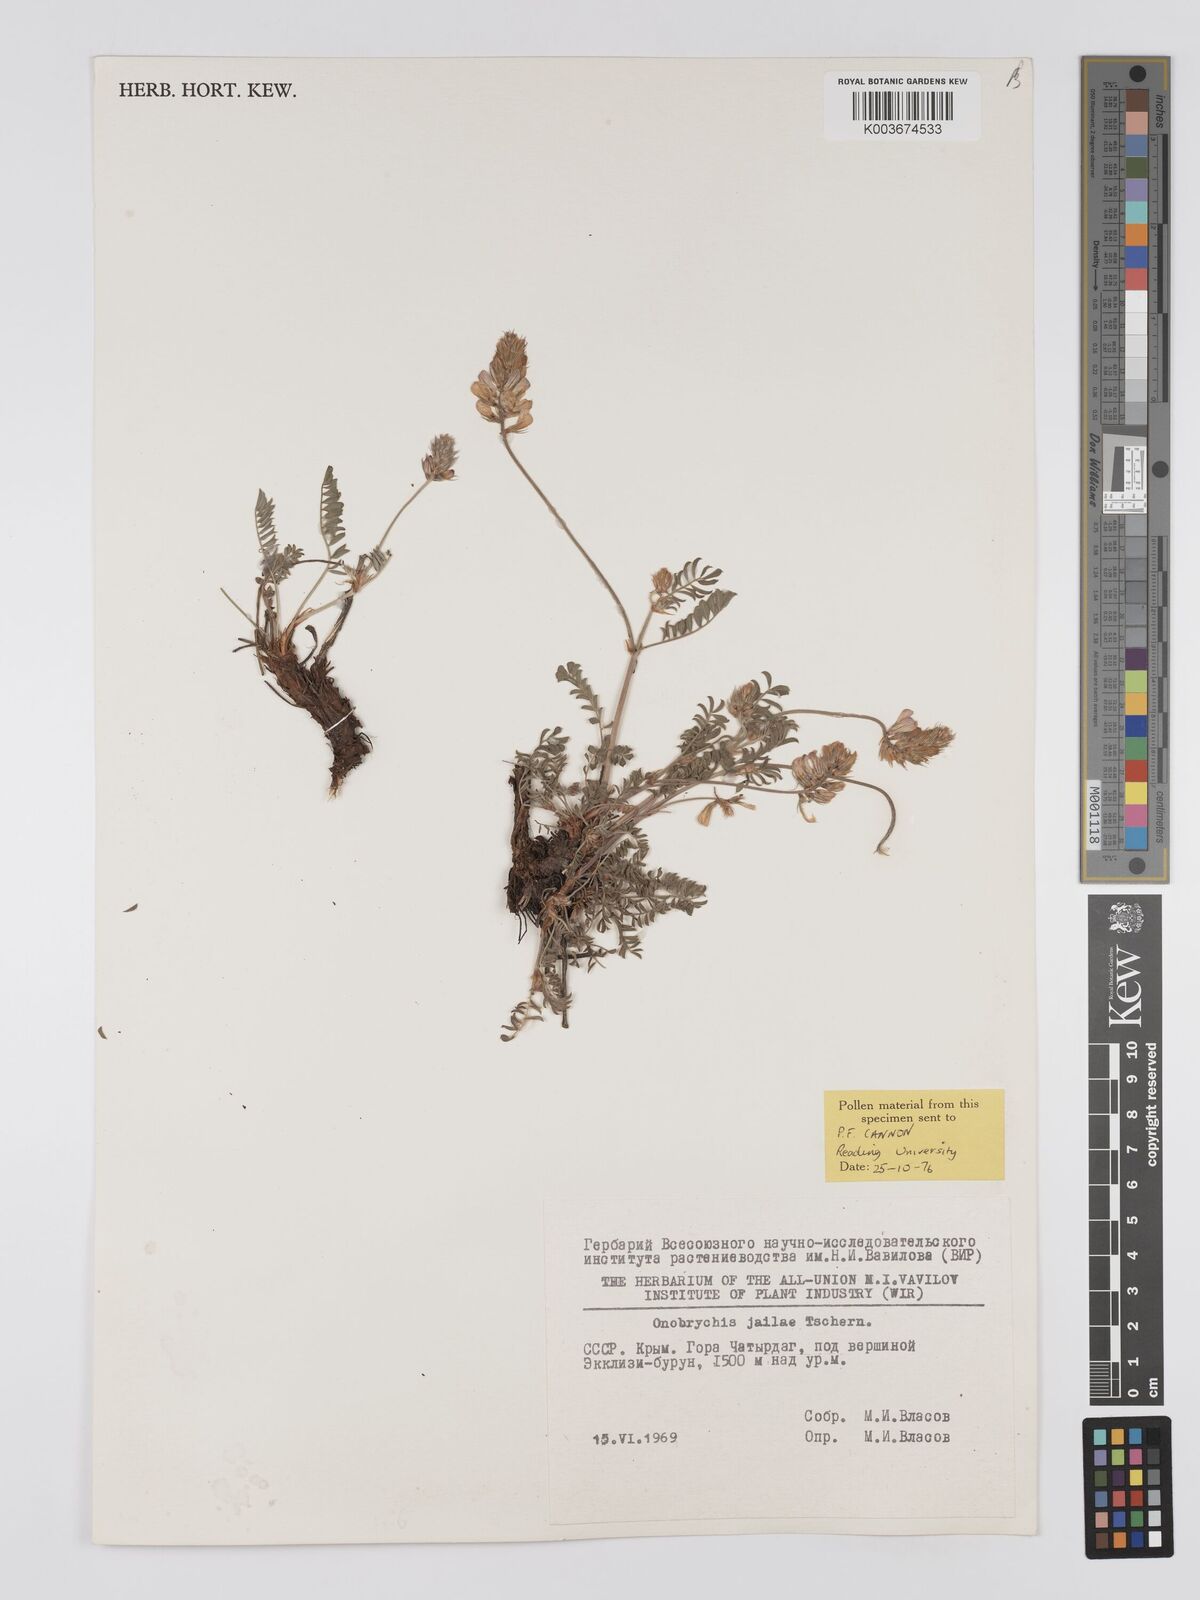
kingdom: Plantae
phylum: Tracheophyta
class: Magnoliopsida
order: Fabales
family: Fabaceae
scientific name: Fabaceae
